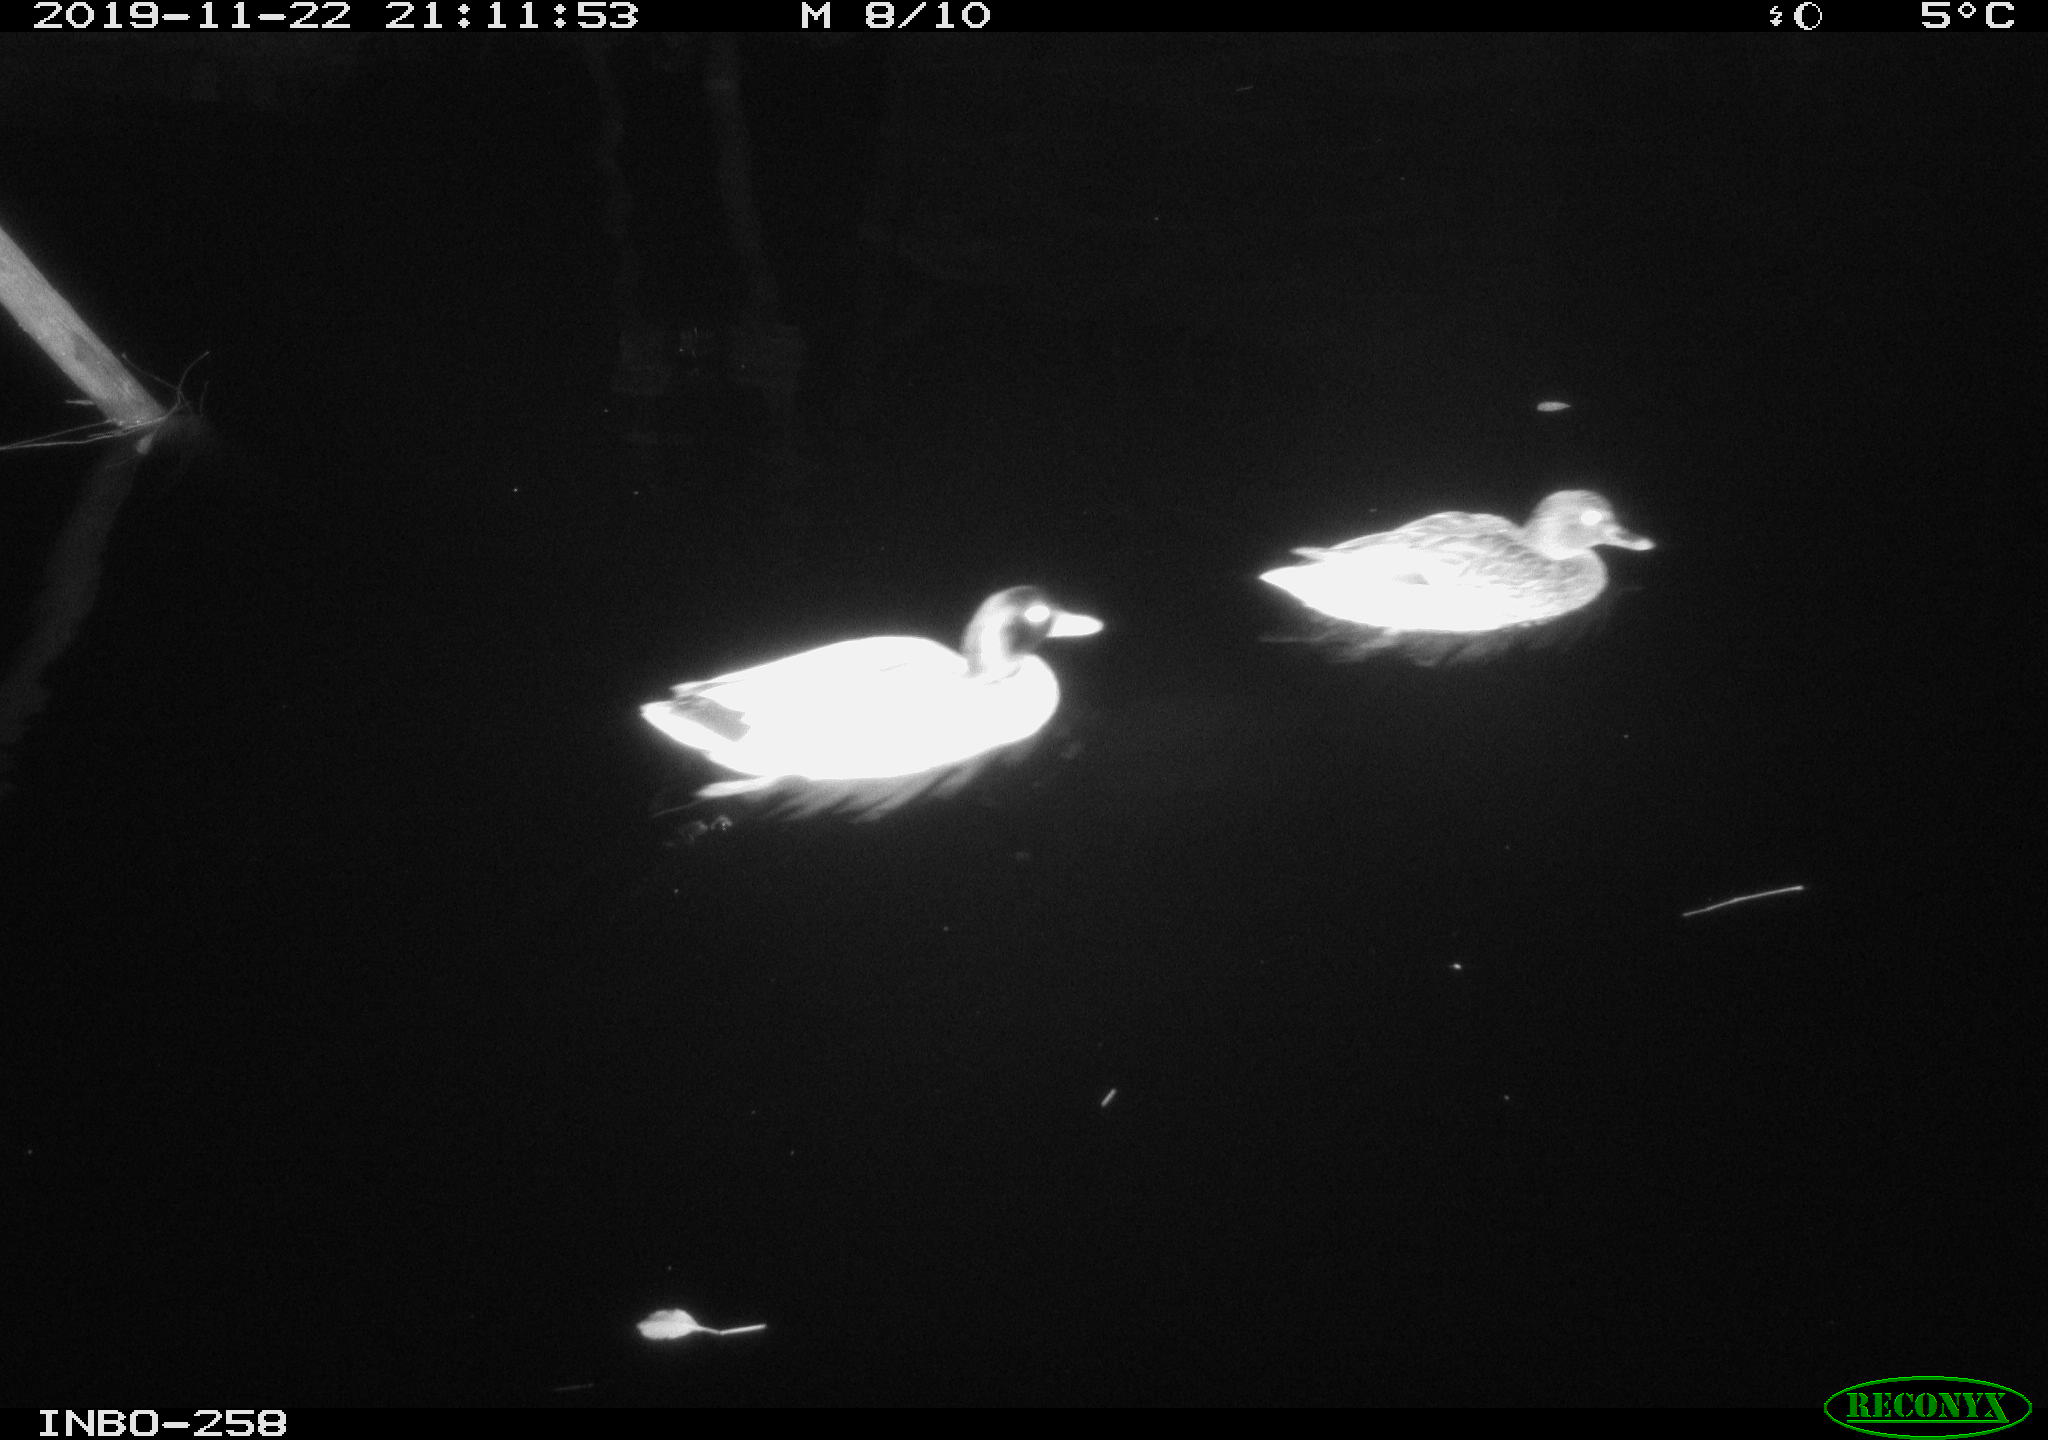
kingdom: Animalia
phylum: Chordata
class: Aves
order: Anseriformes
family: Anatidae
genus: Anas
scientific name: Anas platyrhynchos
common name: Mallard
